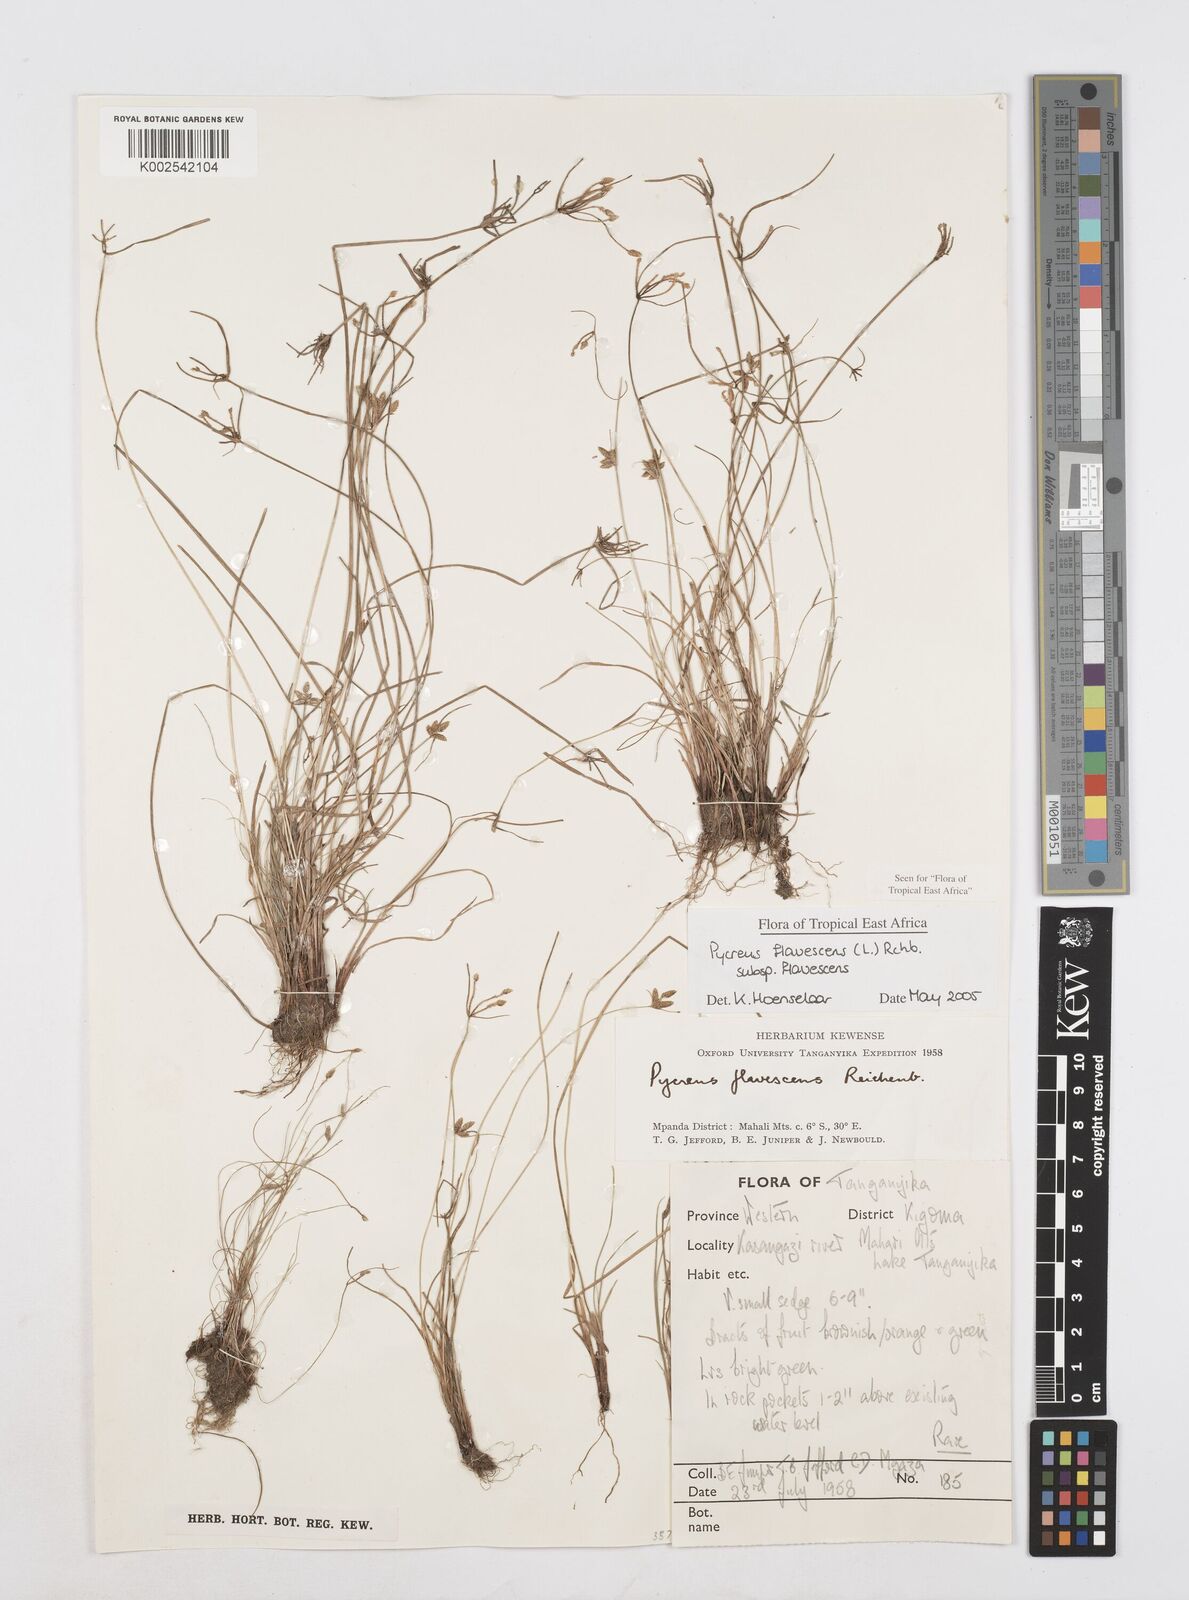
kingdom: Plantae
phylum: Tracheophyta
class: Liliopsida
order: Poales
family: Cyperaceae
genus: Cyperus
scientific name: Cyperus flavescens
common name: Yellow galingale
